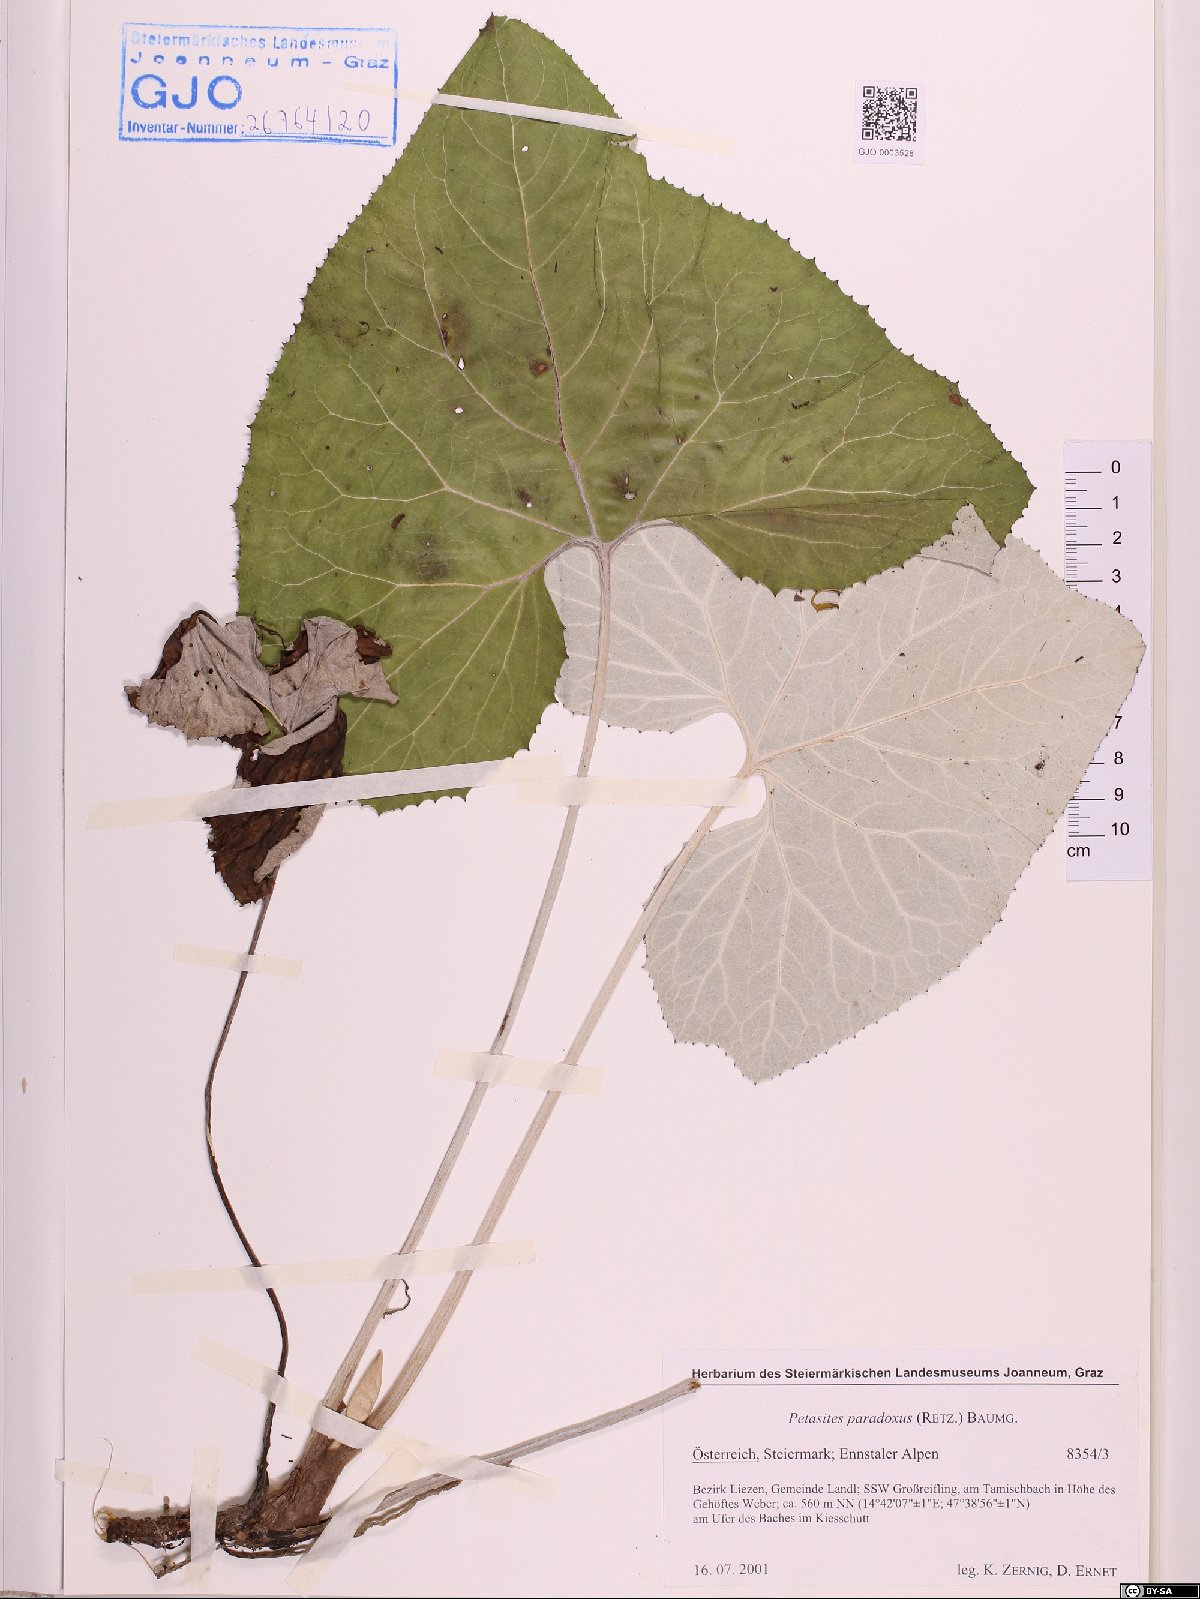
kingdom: Plantae
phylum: Tracheophyta
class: Magnoliopsida
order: Asterales
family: Asteraceae
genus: Petasites
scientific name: Petasites paradoxus
